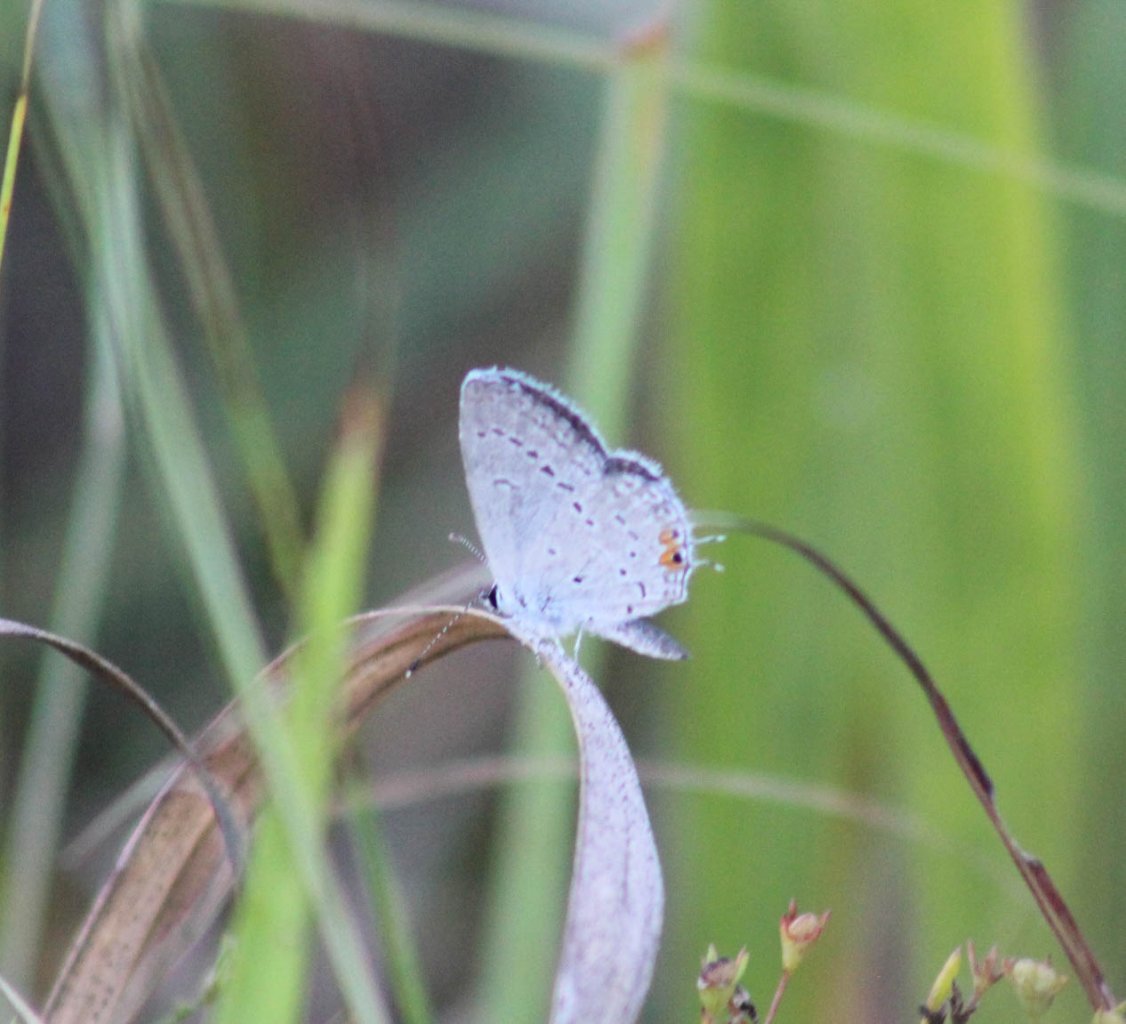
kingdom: Animalia
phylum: Arthropoda
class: Insecta
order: Lepidoptera
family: Lycaenidae
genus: Elkalyce
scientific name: Elkalyce comyntas
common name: Eastern Tailed-Blue
